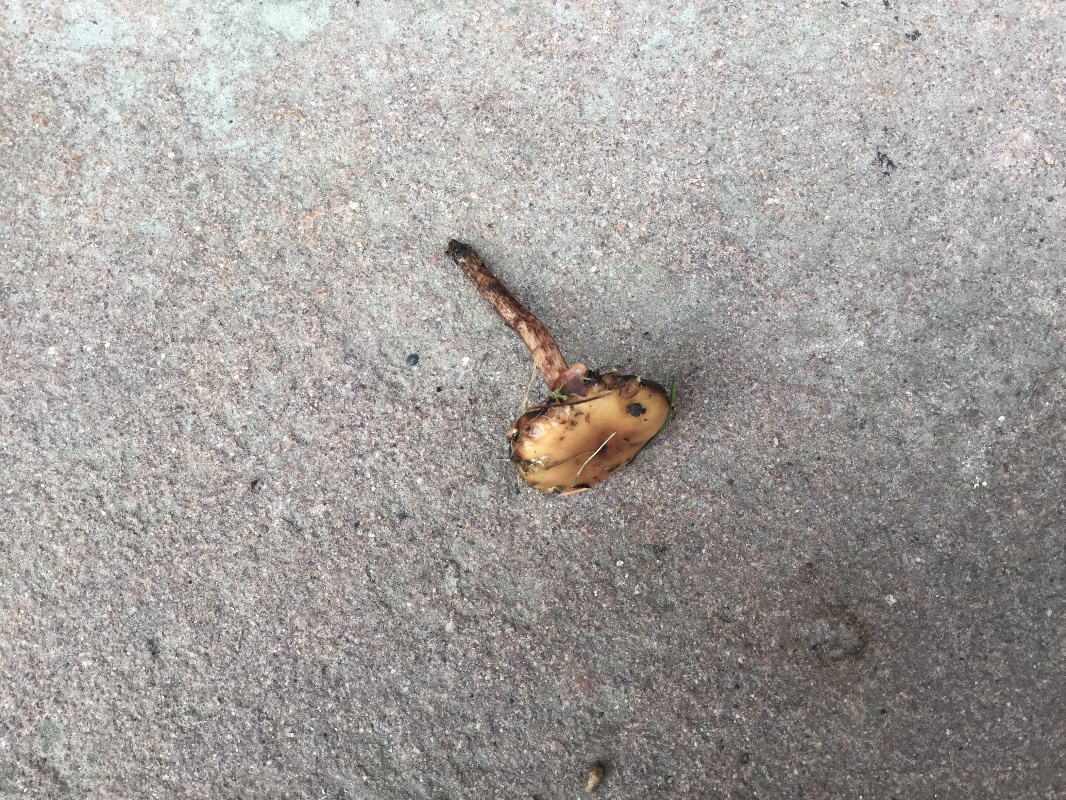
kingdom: Fungi
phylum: Basidiomycota
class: Agaricomycetes
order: Boletales
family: Gomphidiaceae
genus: Gomphidius
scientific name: Gomphidius maculatus
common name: rødmende slimslør
